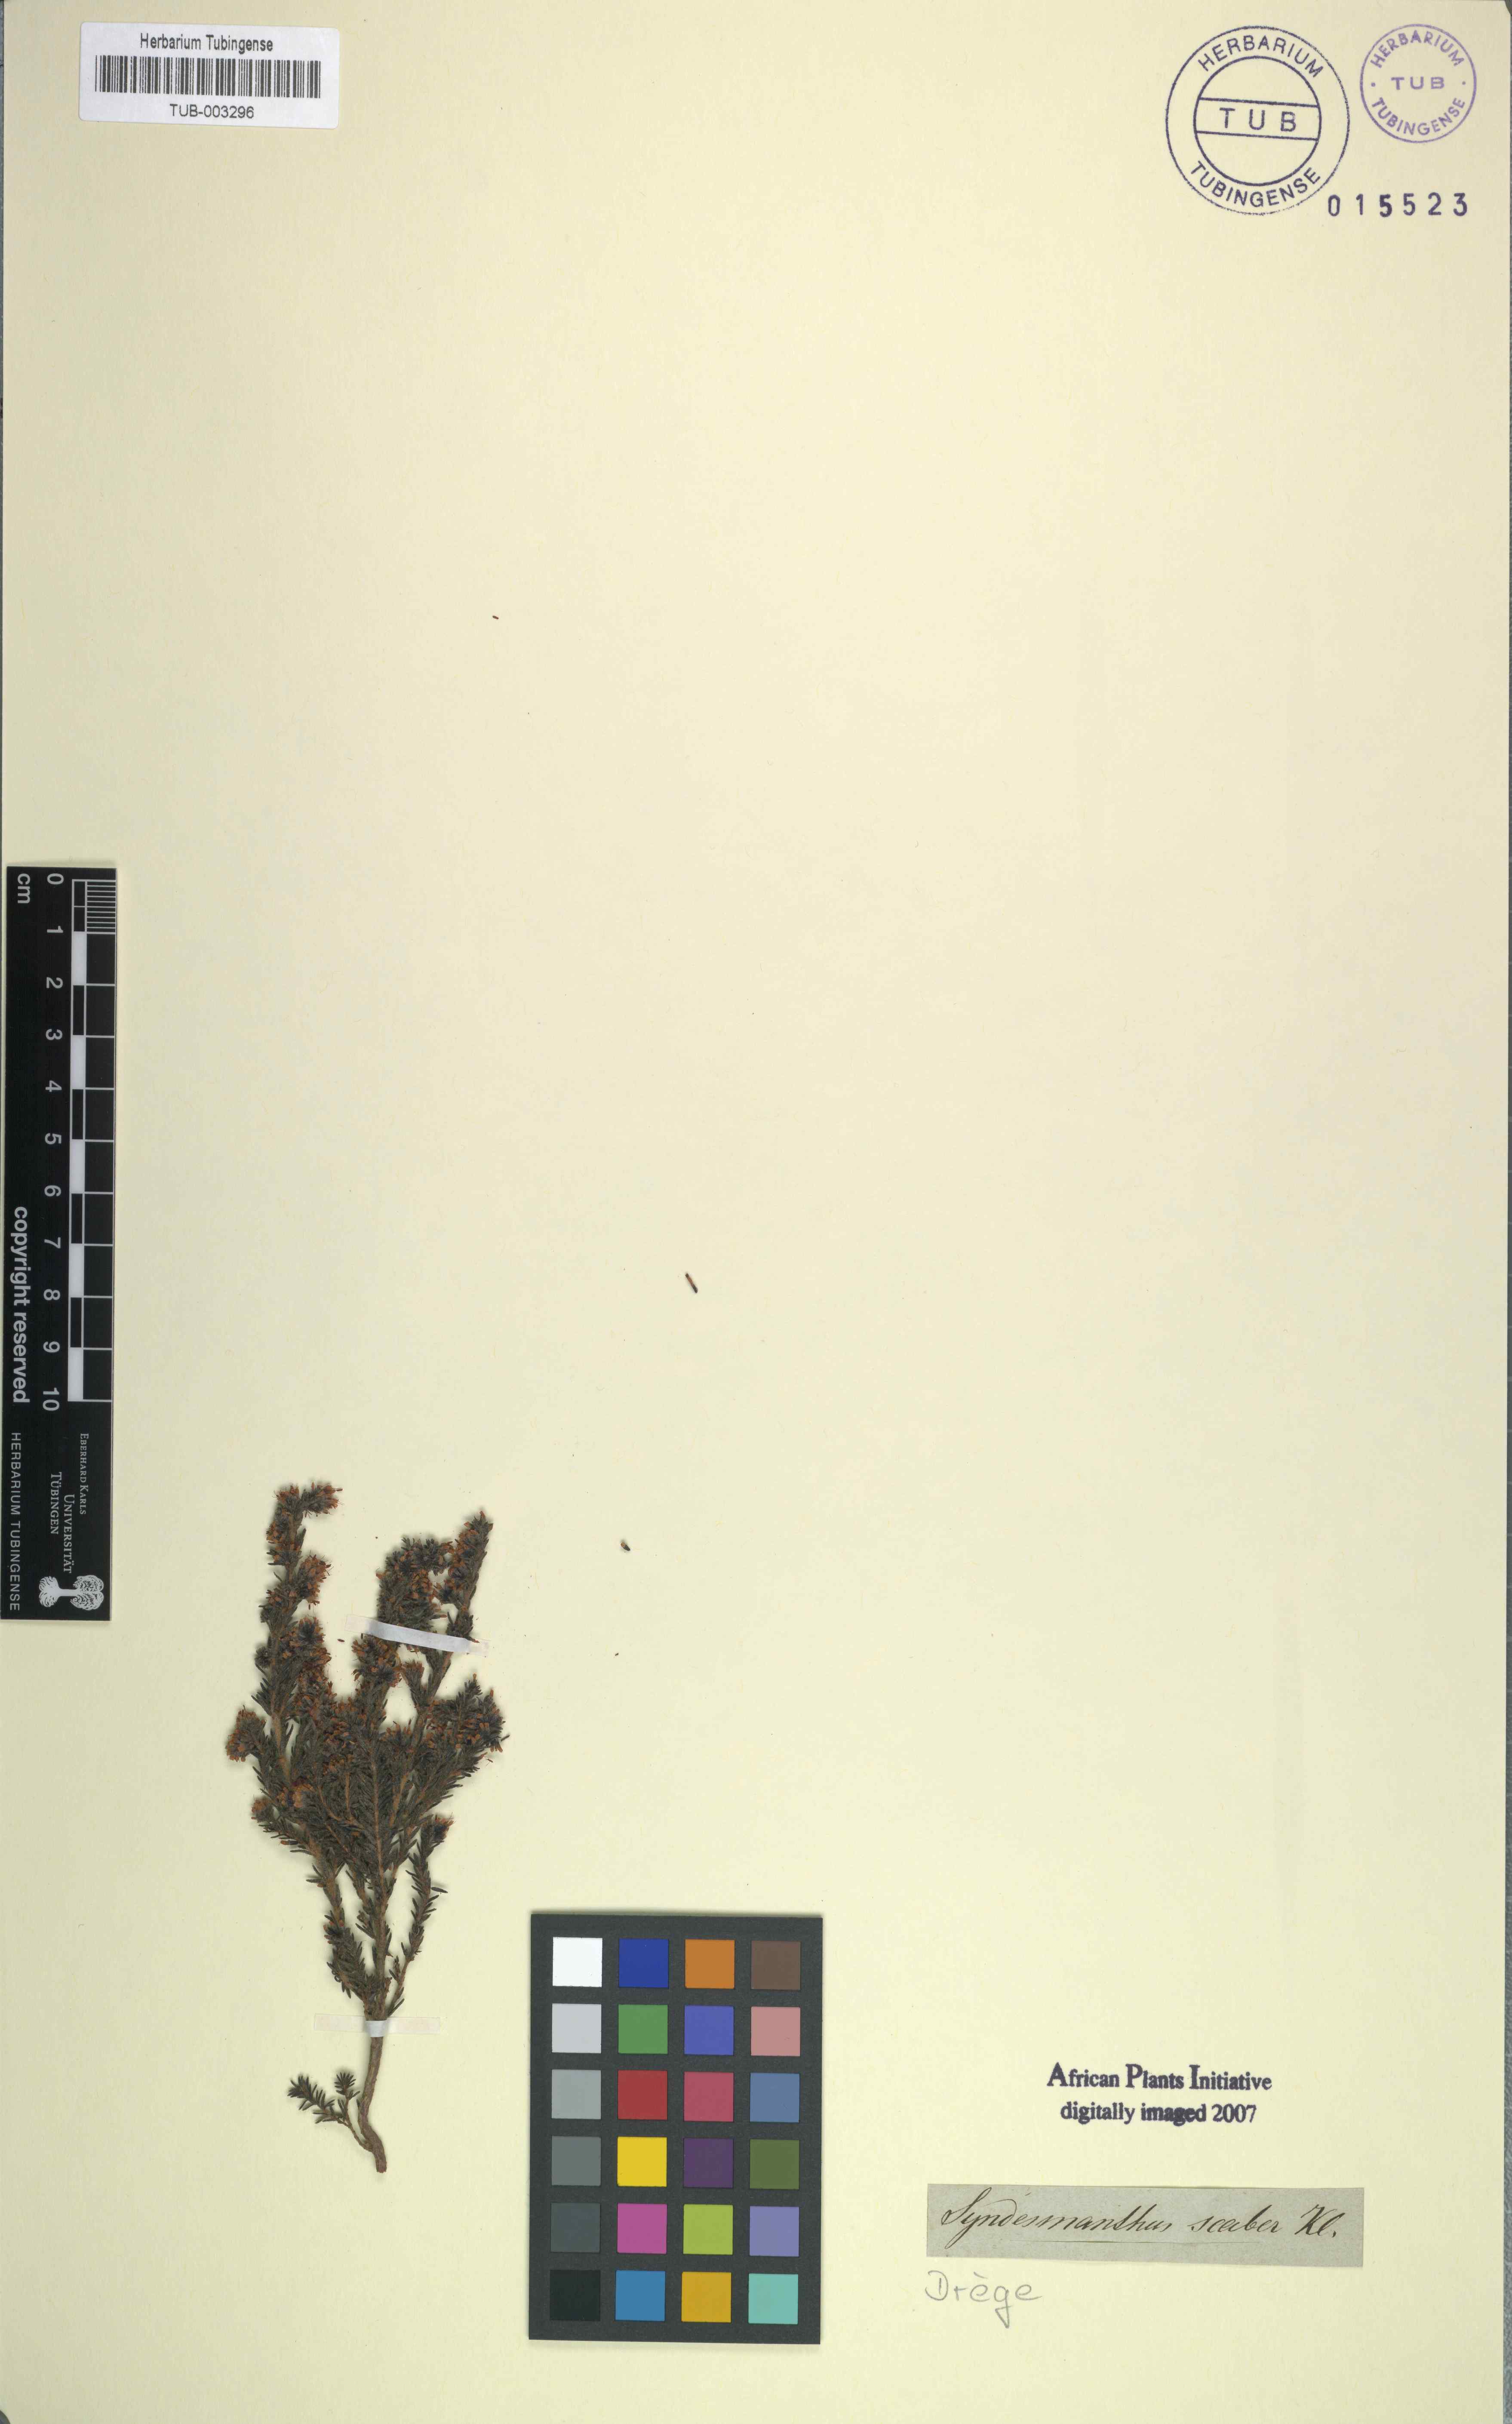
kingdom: Plantae
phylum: Tracheophyta
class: Magnoliopsida
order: Ericales
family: Ericaceae
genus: Erica
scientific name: Erica similis
